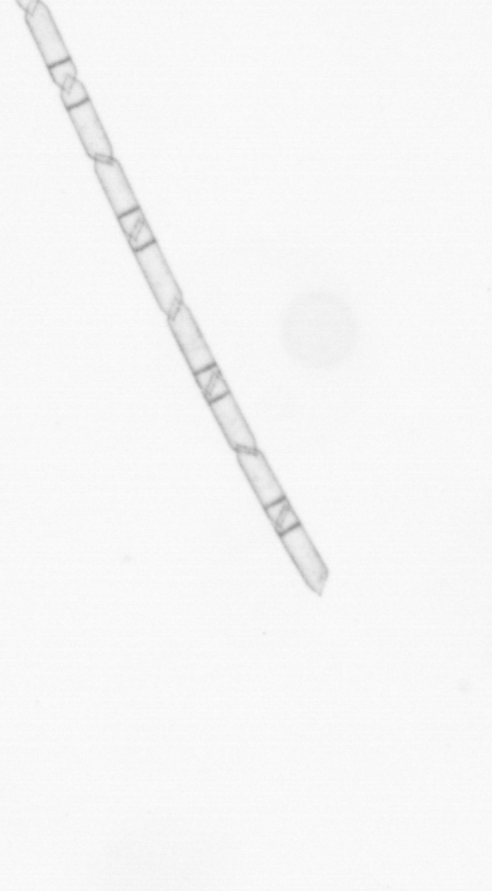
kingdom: Chromista
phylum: Ochrophyta
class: Bacillariophyceae
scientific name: Bacillariophyceae
